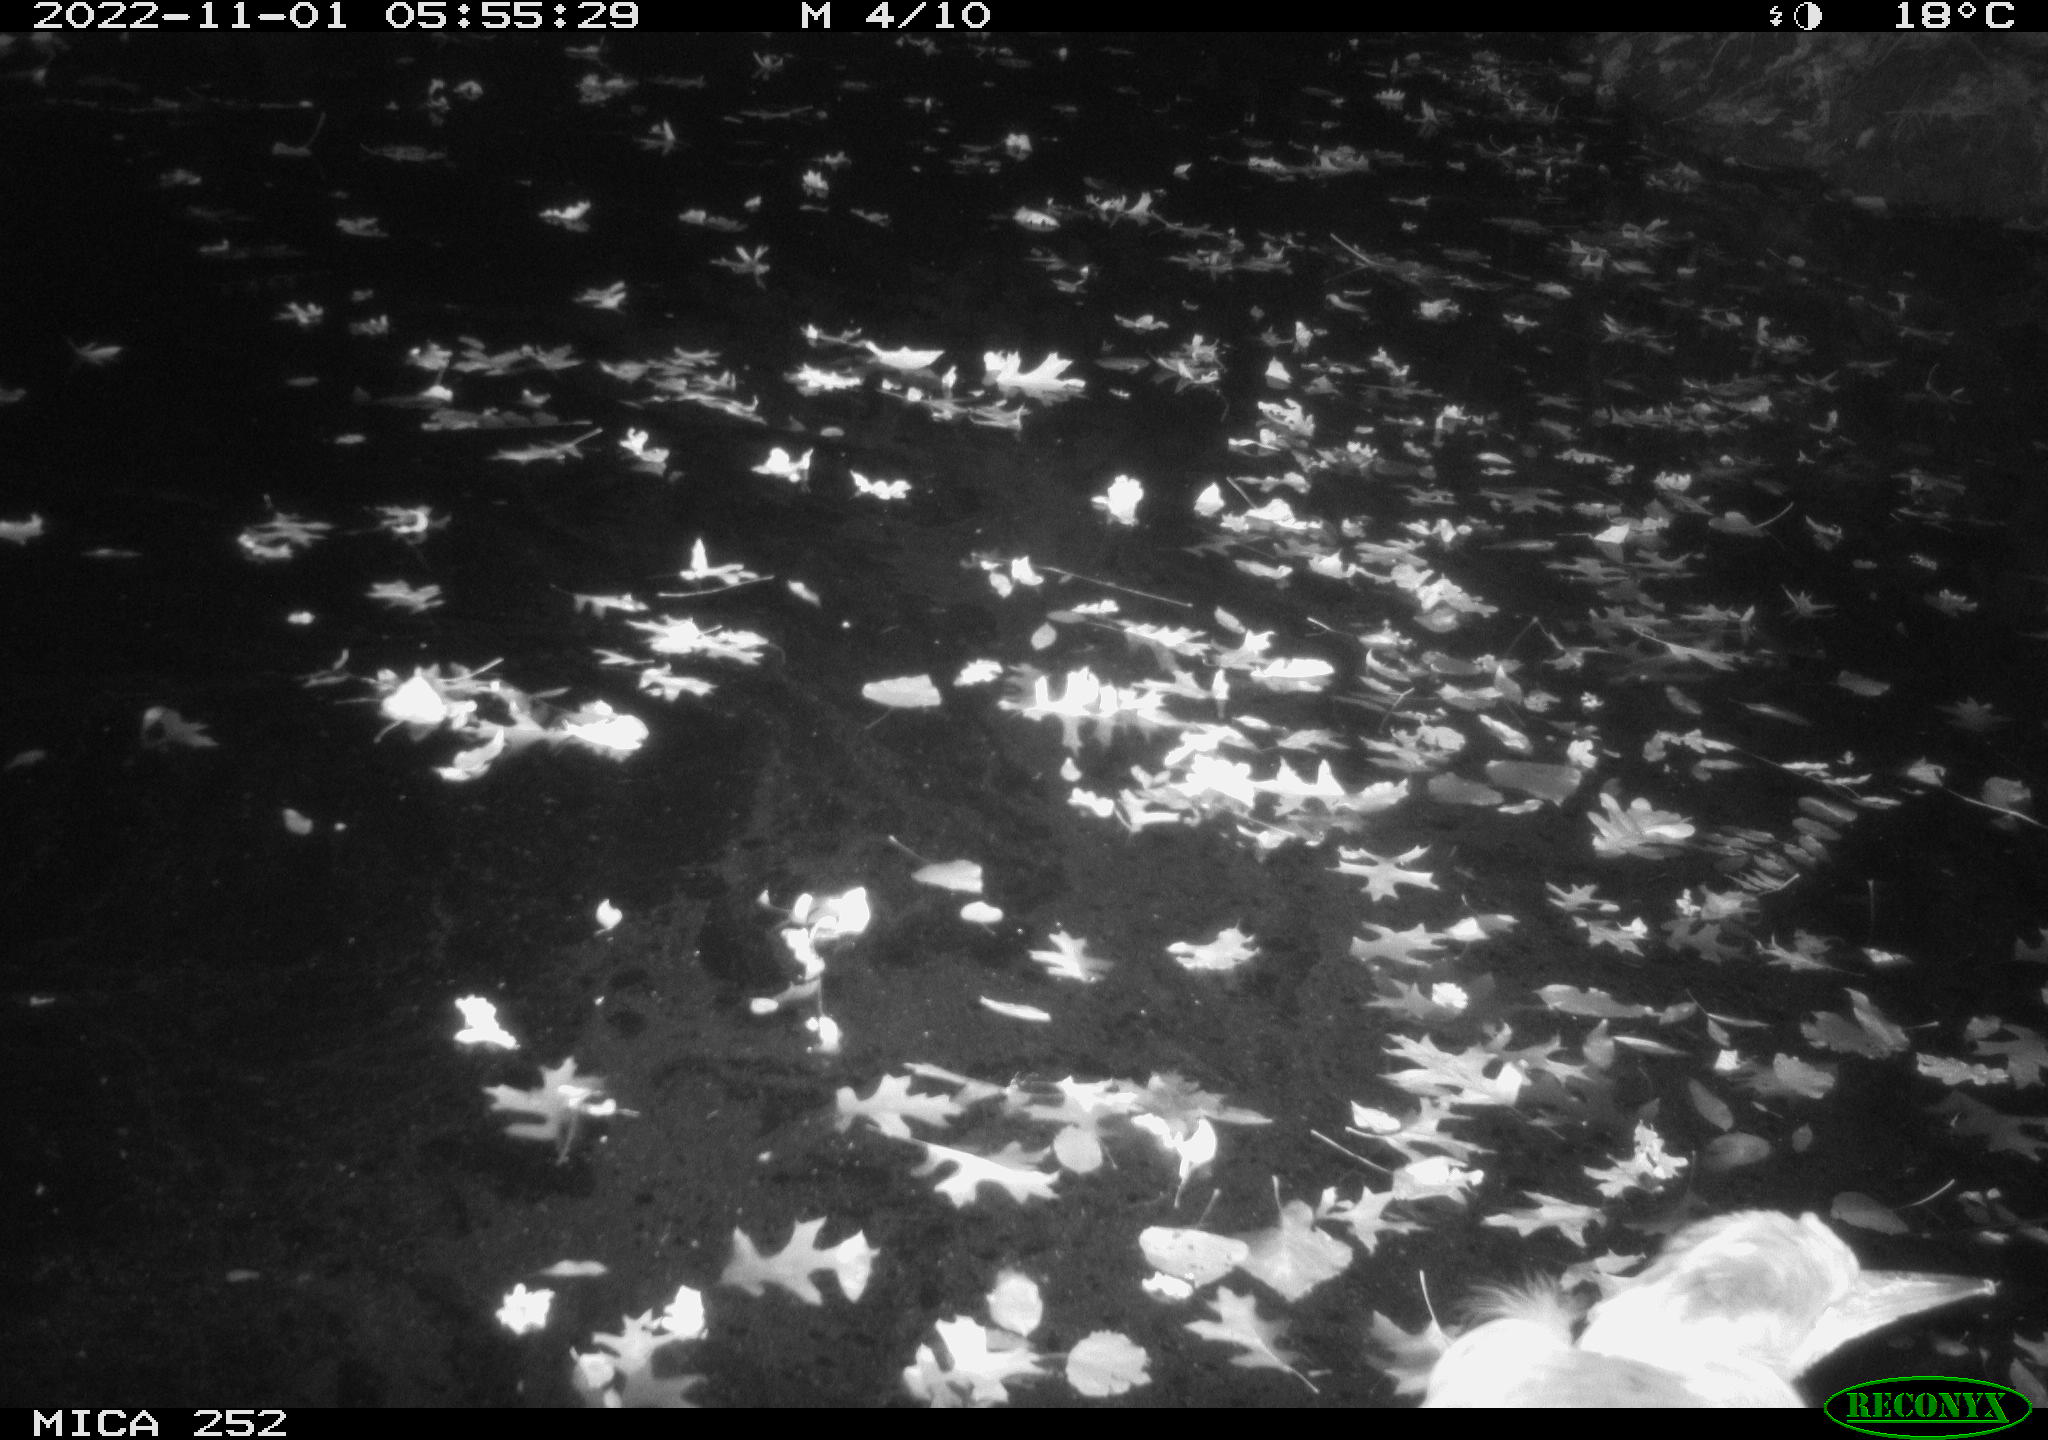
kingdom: Animalia
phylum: Chordata
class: Aves
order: Pelecaniformes
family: Ardeidae
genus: Ardea
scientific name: Ardea cinerea
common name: Grey heron
